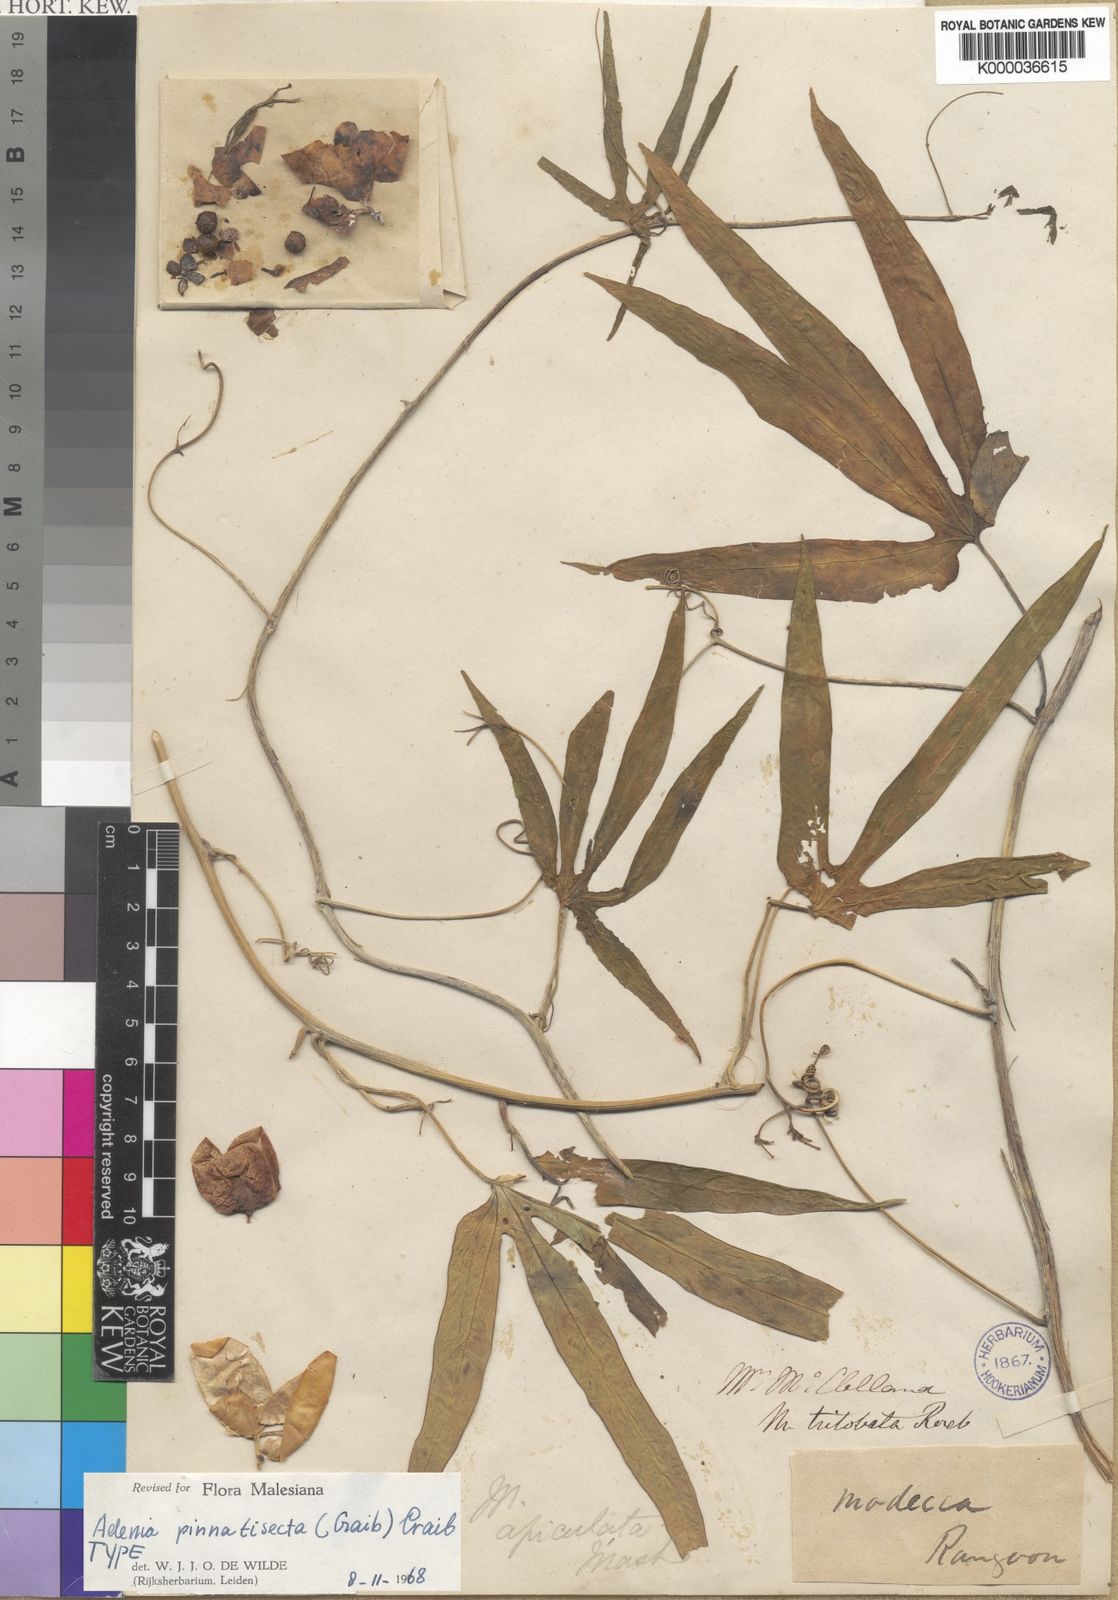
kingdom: Plantae
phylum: Tracheophyta
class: Magnoliopsida
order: Malpighiales
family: Passifloraceae
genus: Adenia
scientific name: Adenia pinnatisecta
